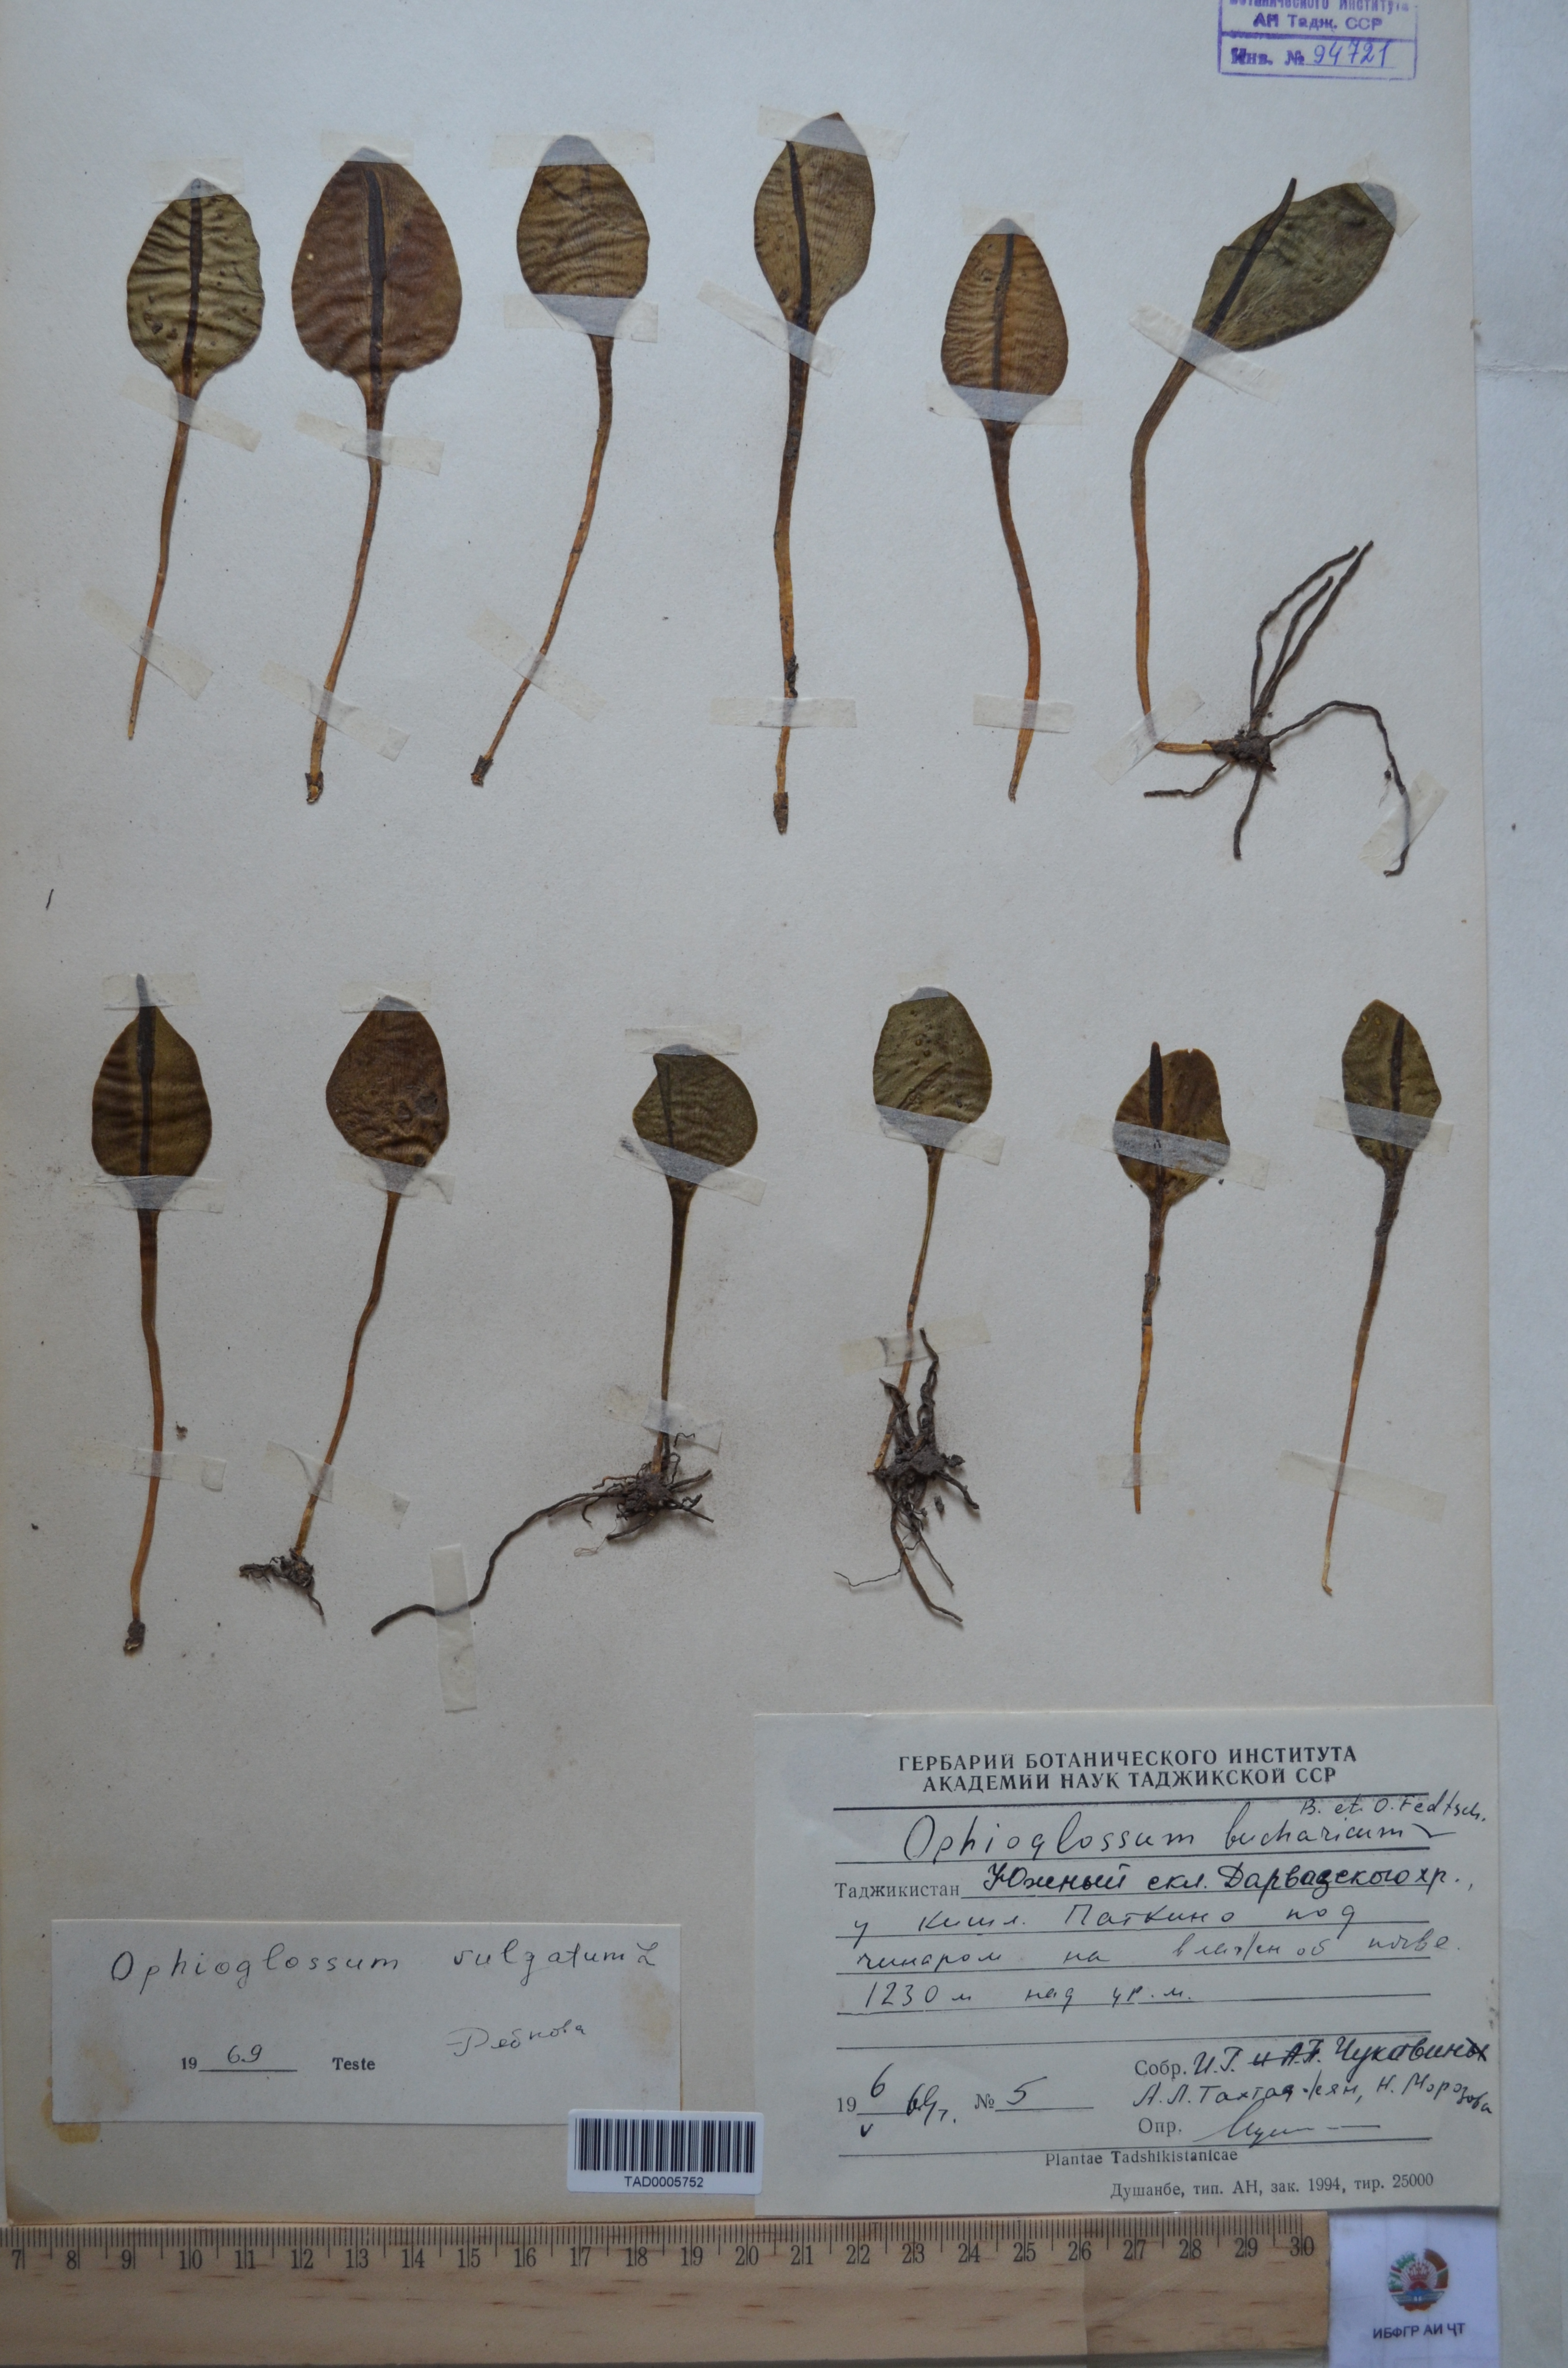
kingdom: Plantae
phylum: Tracheophyta
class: Polypodiopsida
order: Ophioglossales
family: Ophioglossaceae
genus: Ophioglossum
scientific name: Ophioglossum vulgatum
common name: Adder's-tongue
